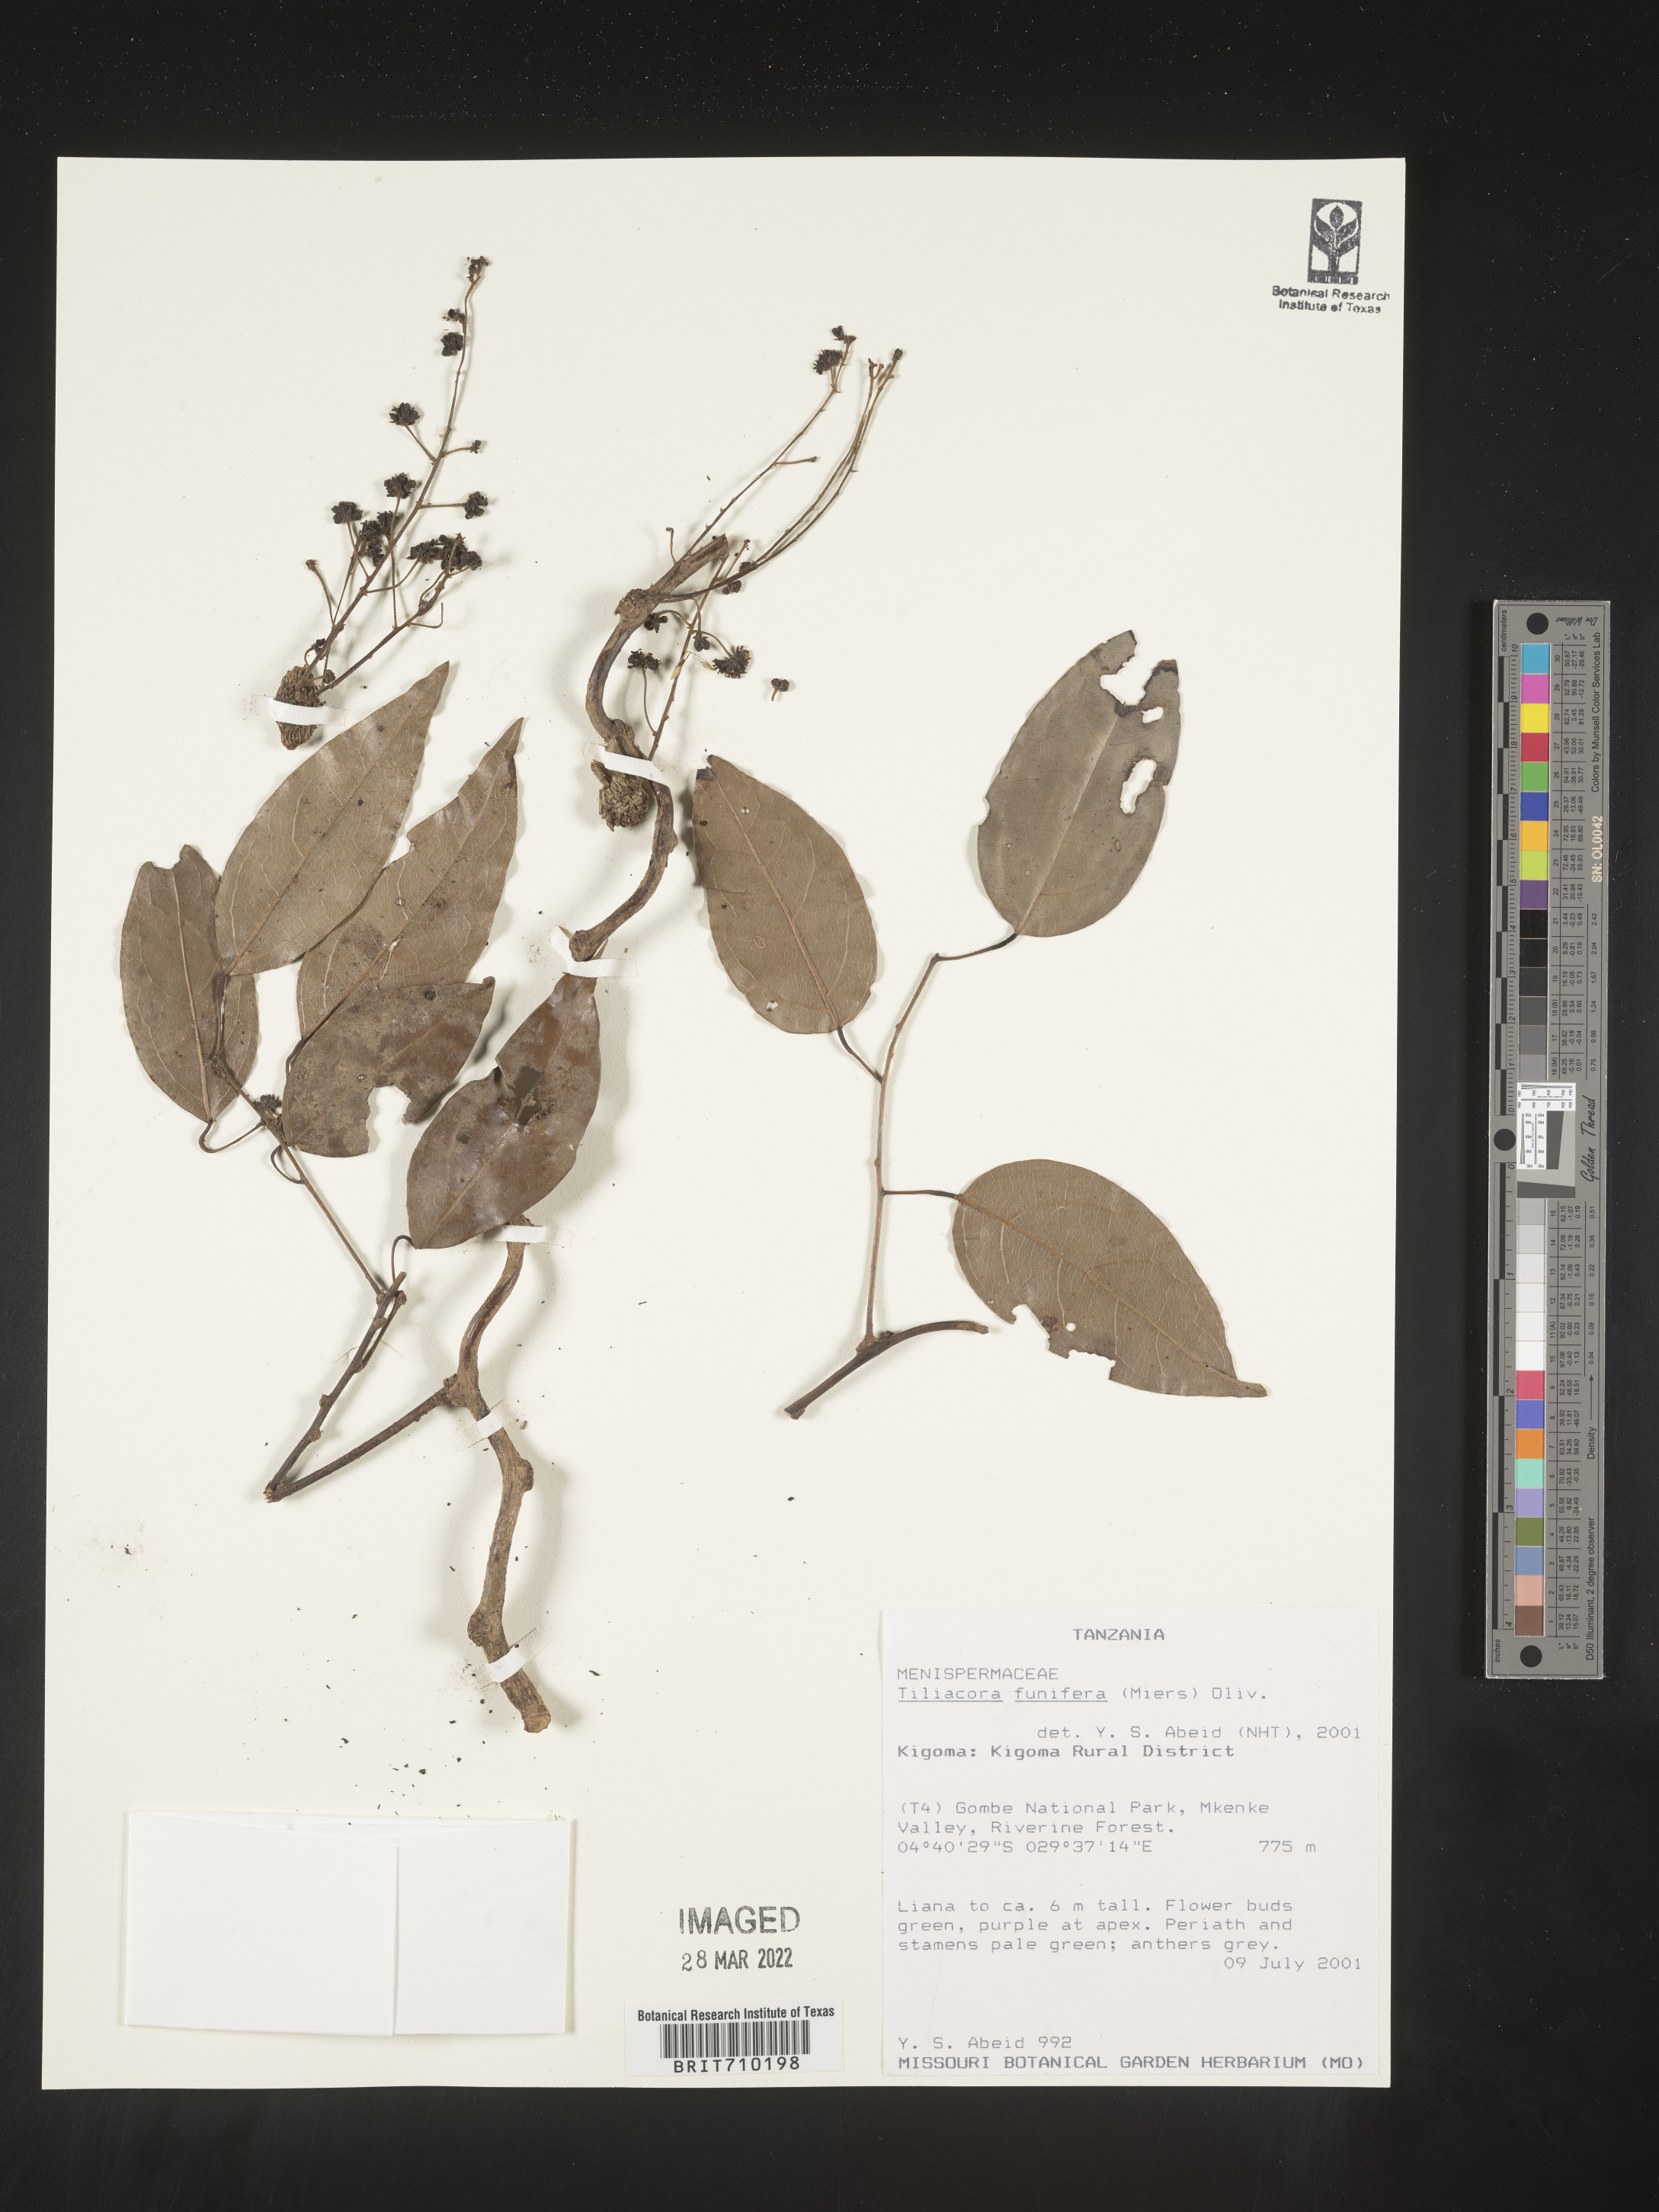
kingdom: Plantae
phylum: Tracheophyta
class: Magnoliopsida
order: Ranunculales
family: Menispermaceae
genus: Tiliacora
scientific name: Tiliacora
